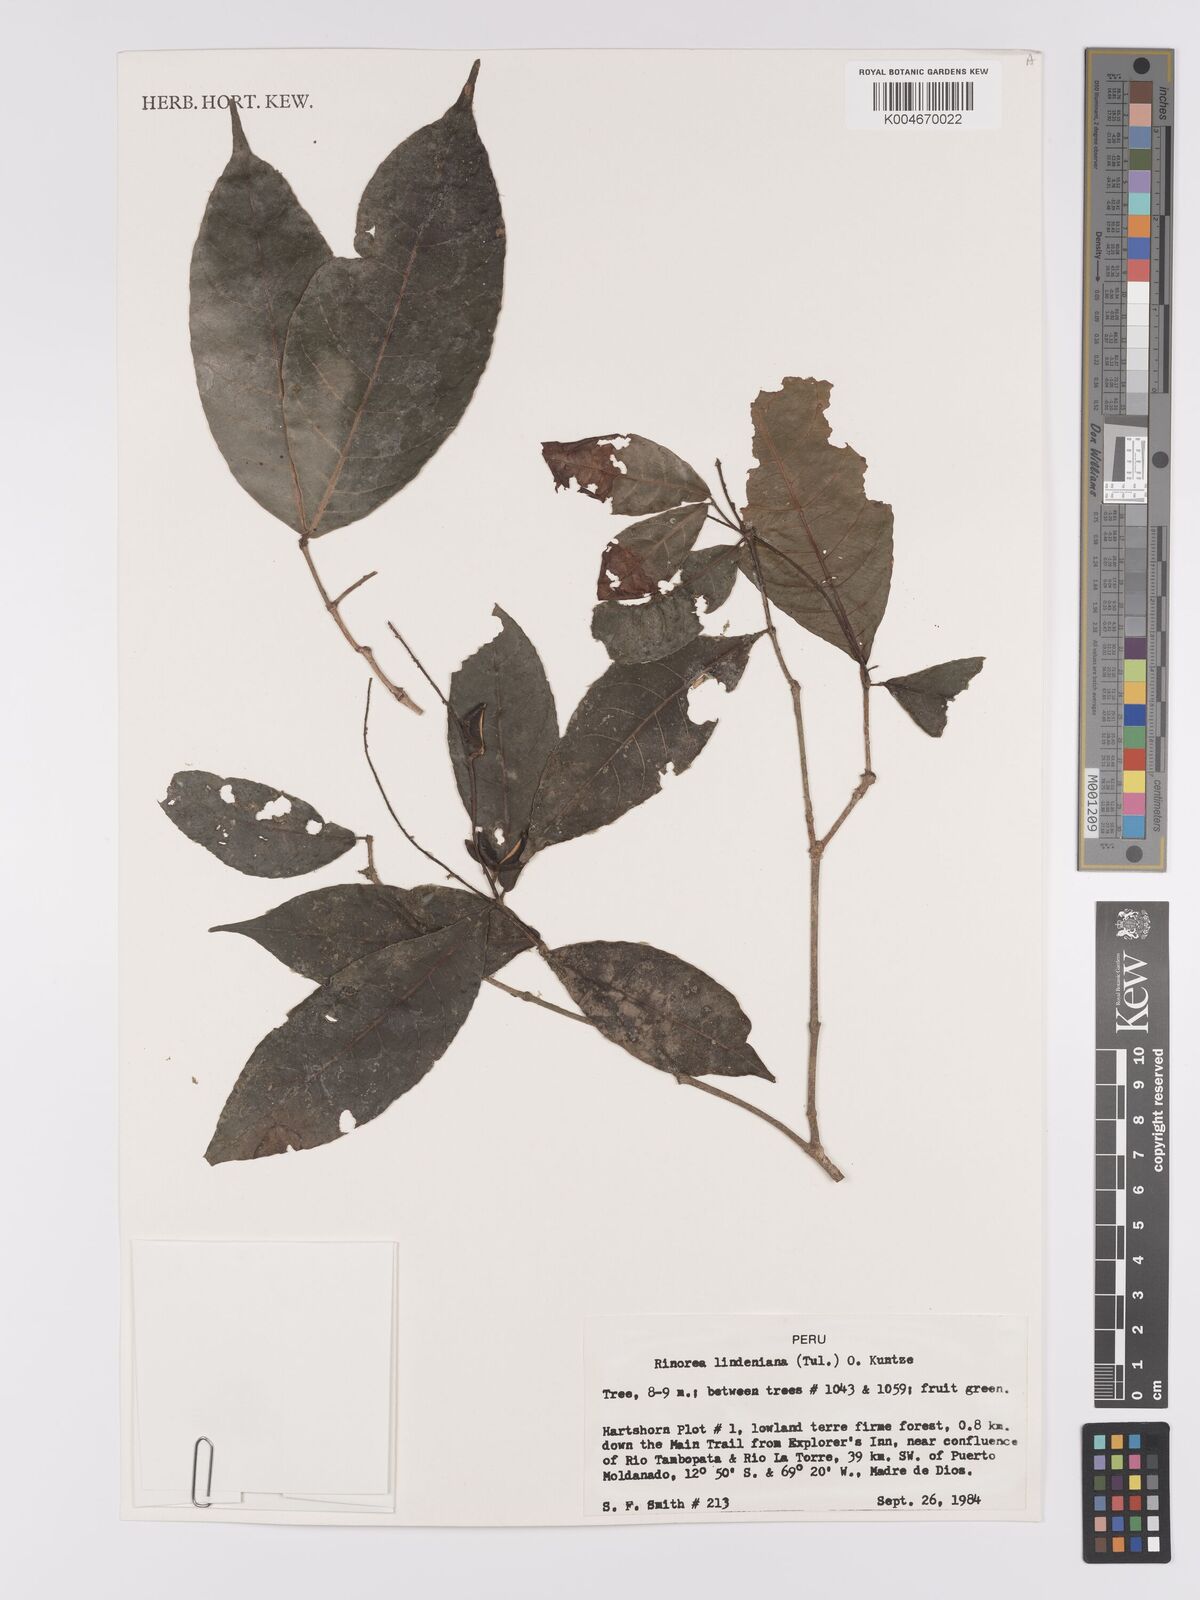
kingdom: Plantae
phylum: Tracheophyta
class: Magnoliopsida
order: Malpighiales
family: Violaceae
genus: Rinorea
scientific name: Rinorea lindeniana
